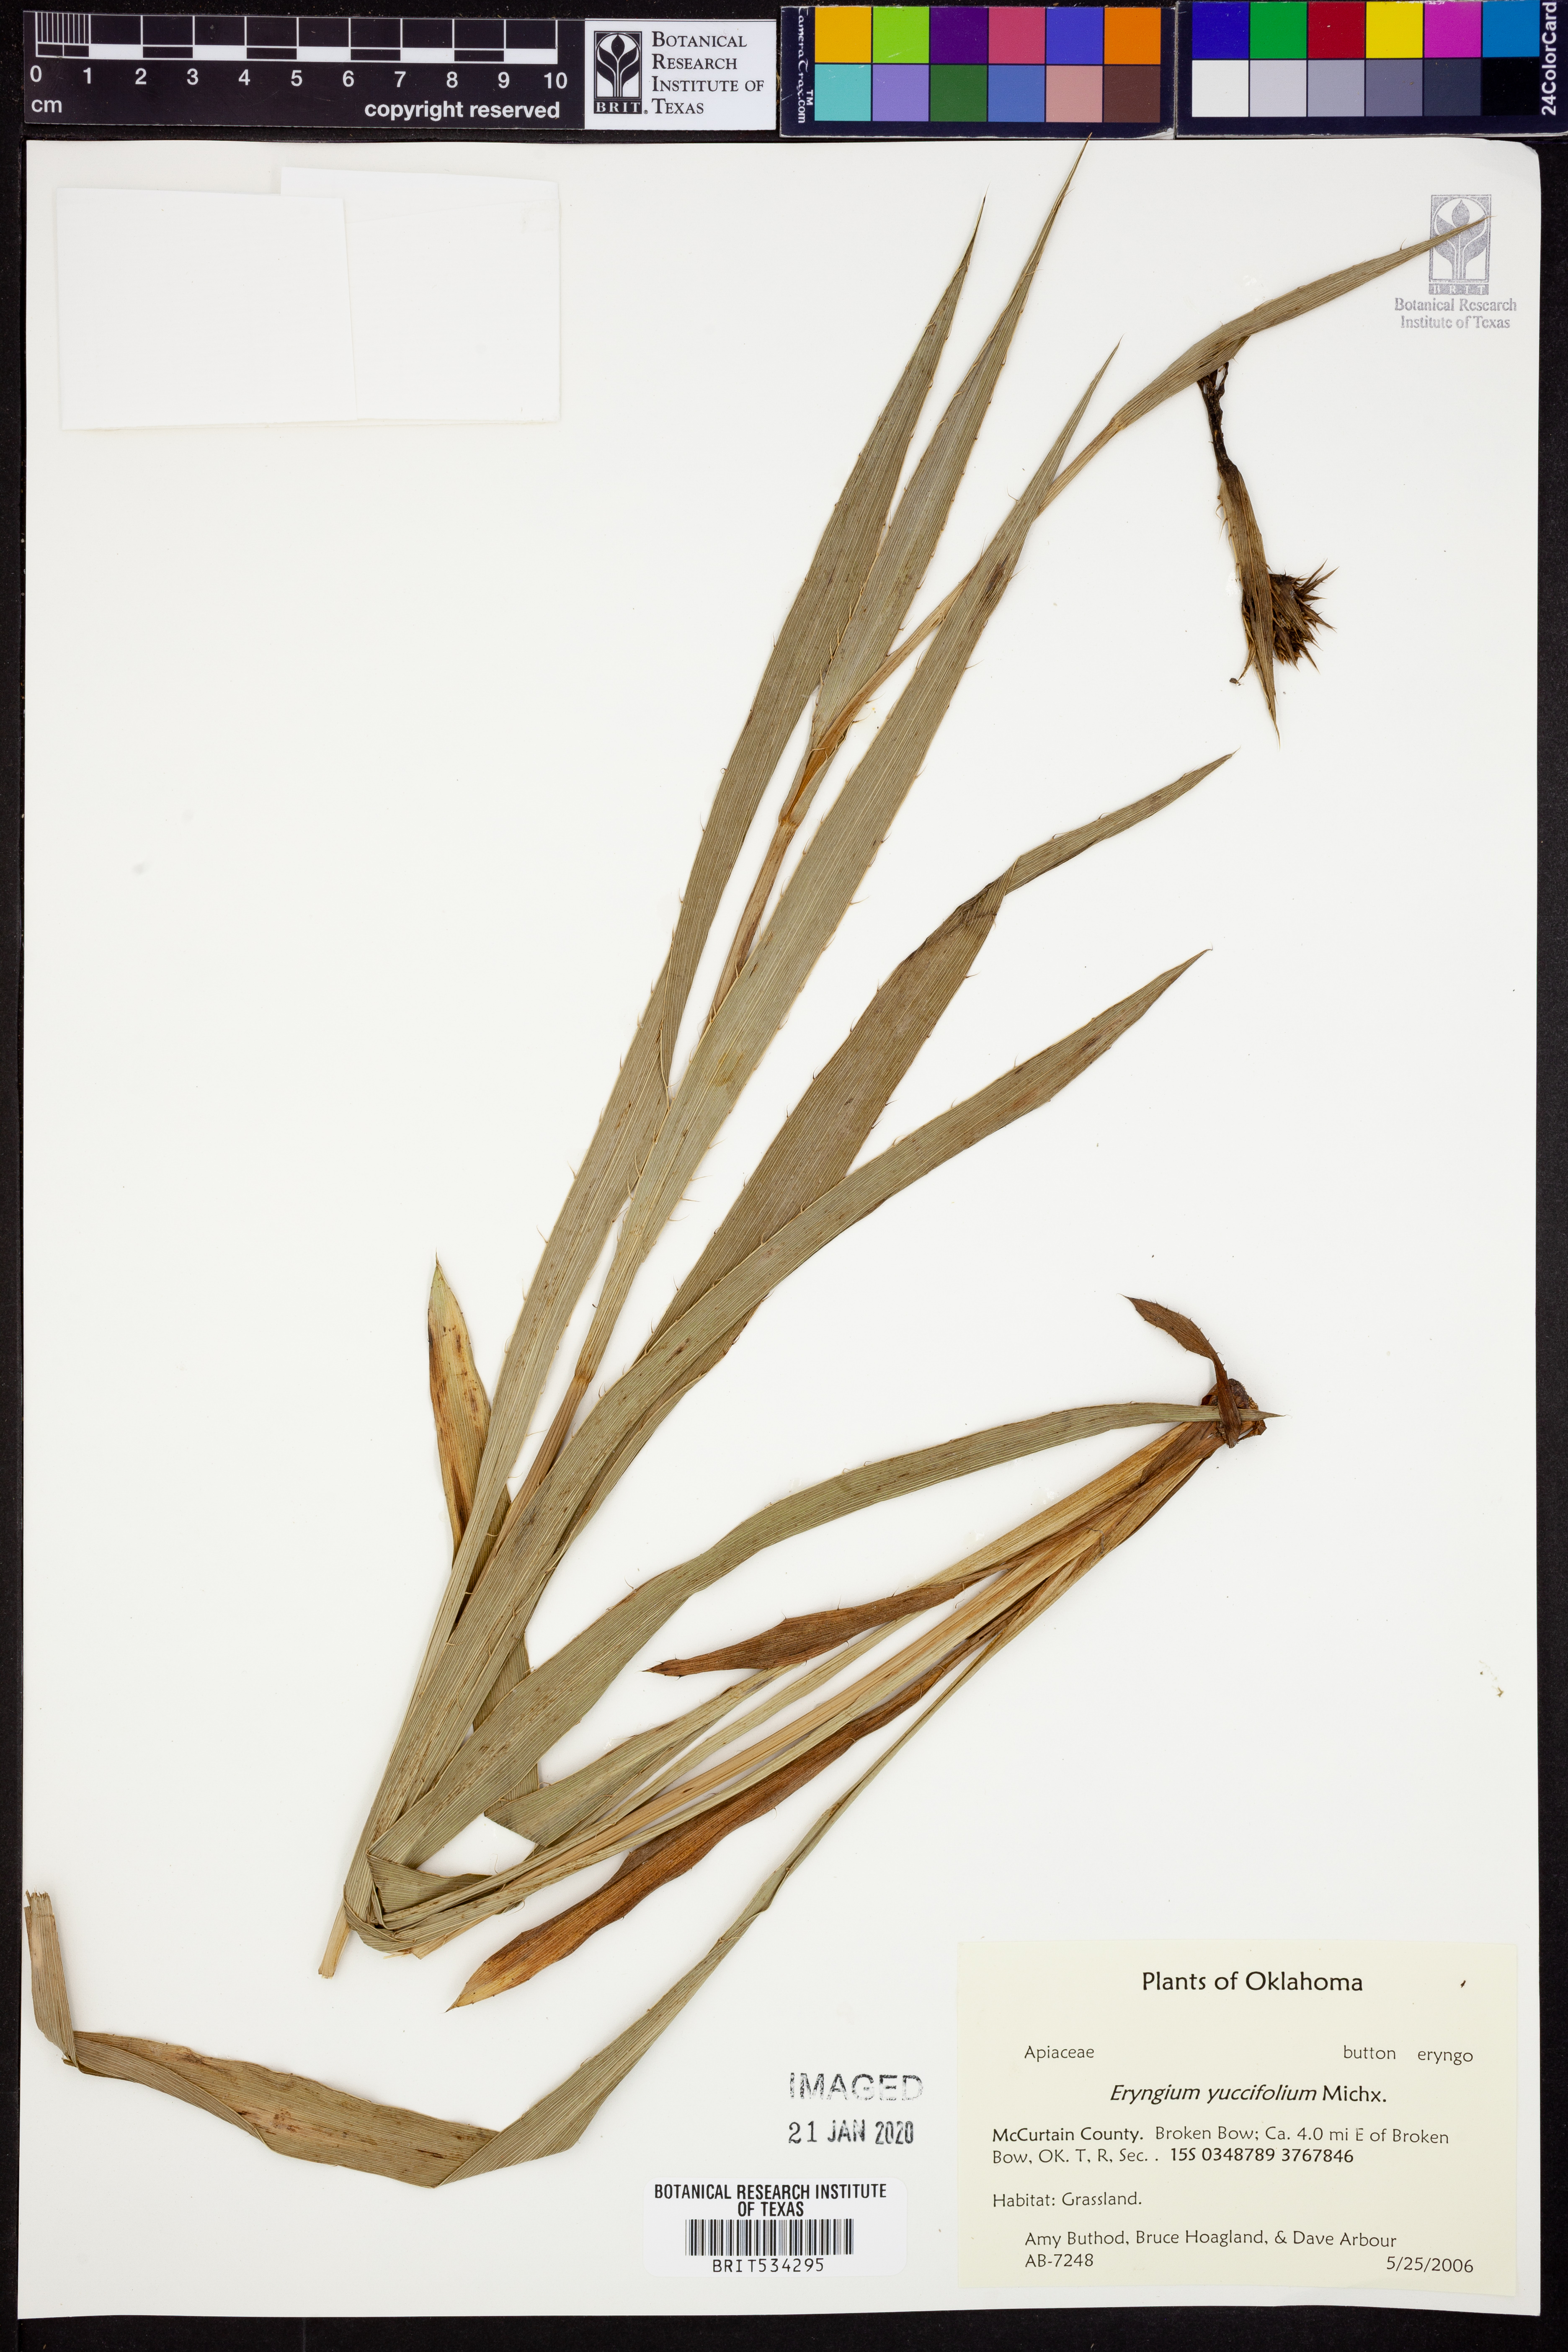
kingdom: Plantae
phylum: Tracheophyta
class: Magnoliopsida
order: Apiales
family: Apiaceae
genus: Eryngium
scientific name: Eryngium yuccifolium
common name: Button eryngo
